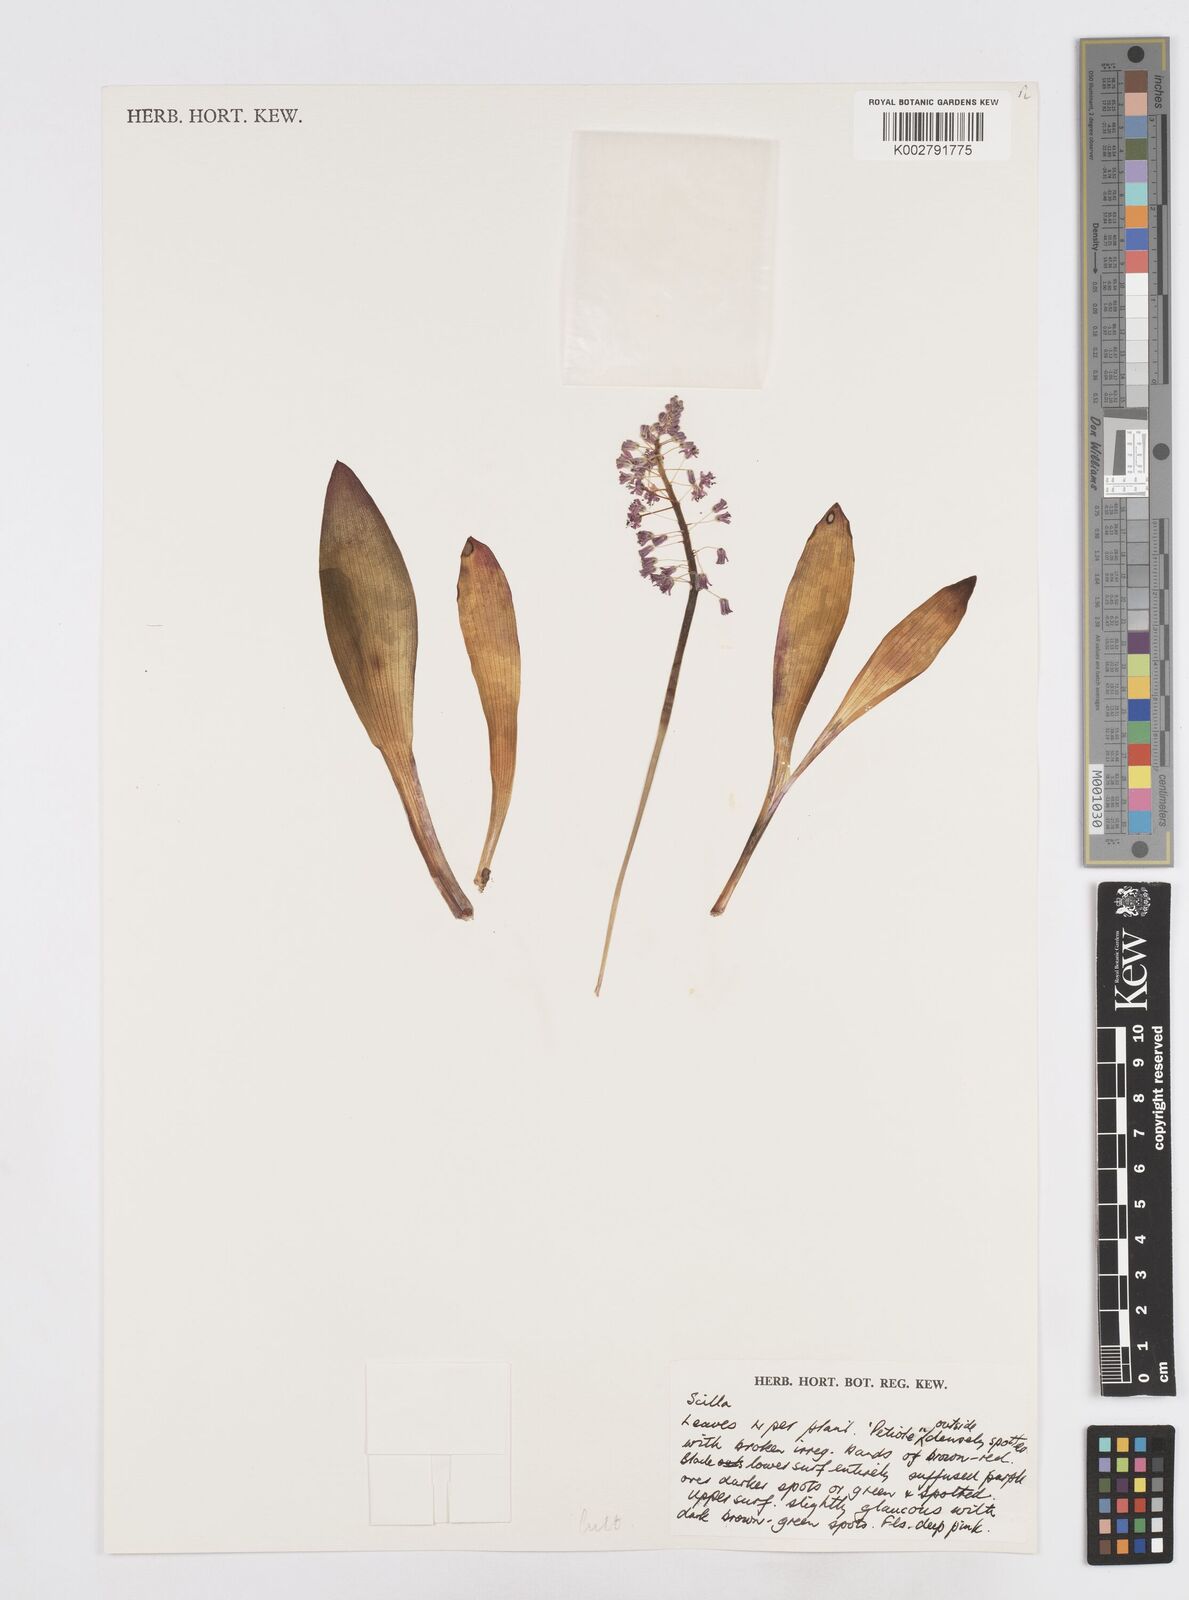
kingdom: Plantae
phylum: Tracheophyta
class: Liliopsida
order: Asparagales
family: Asparagaceae
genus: Scilla
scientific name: Scilla
